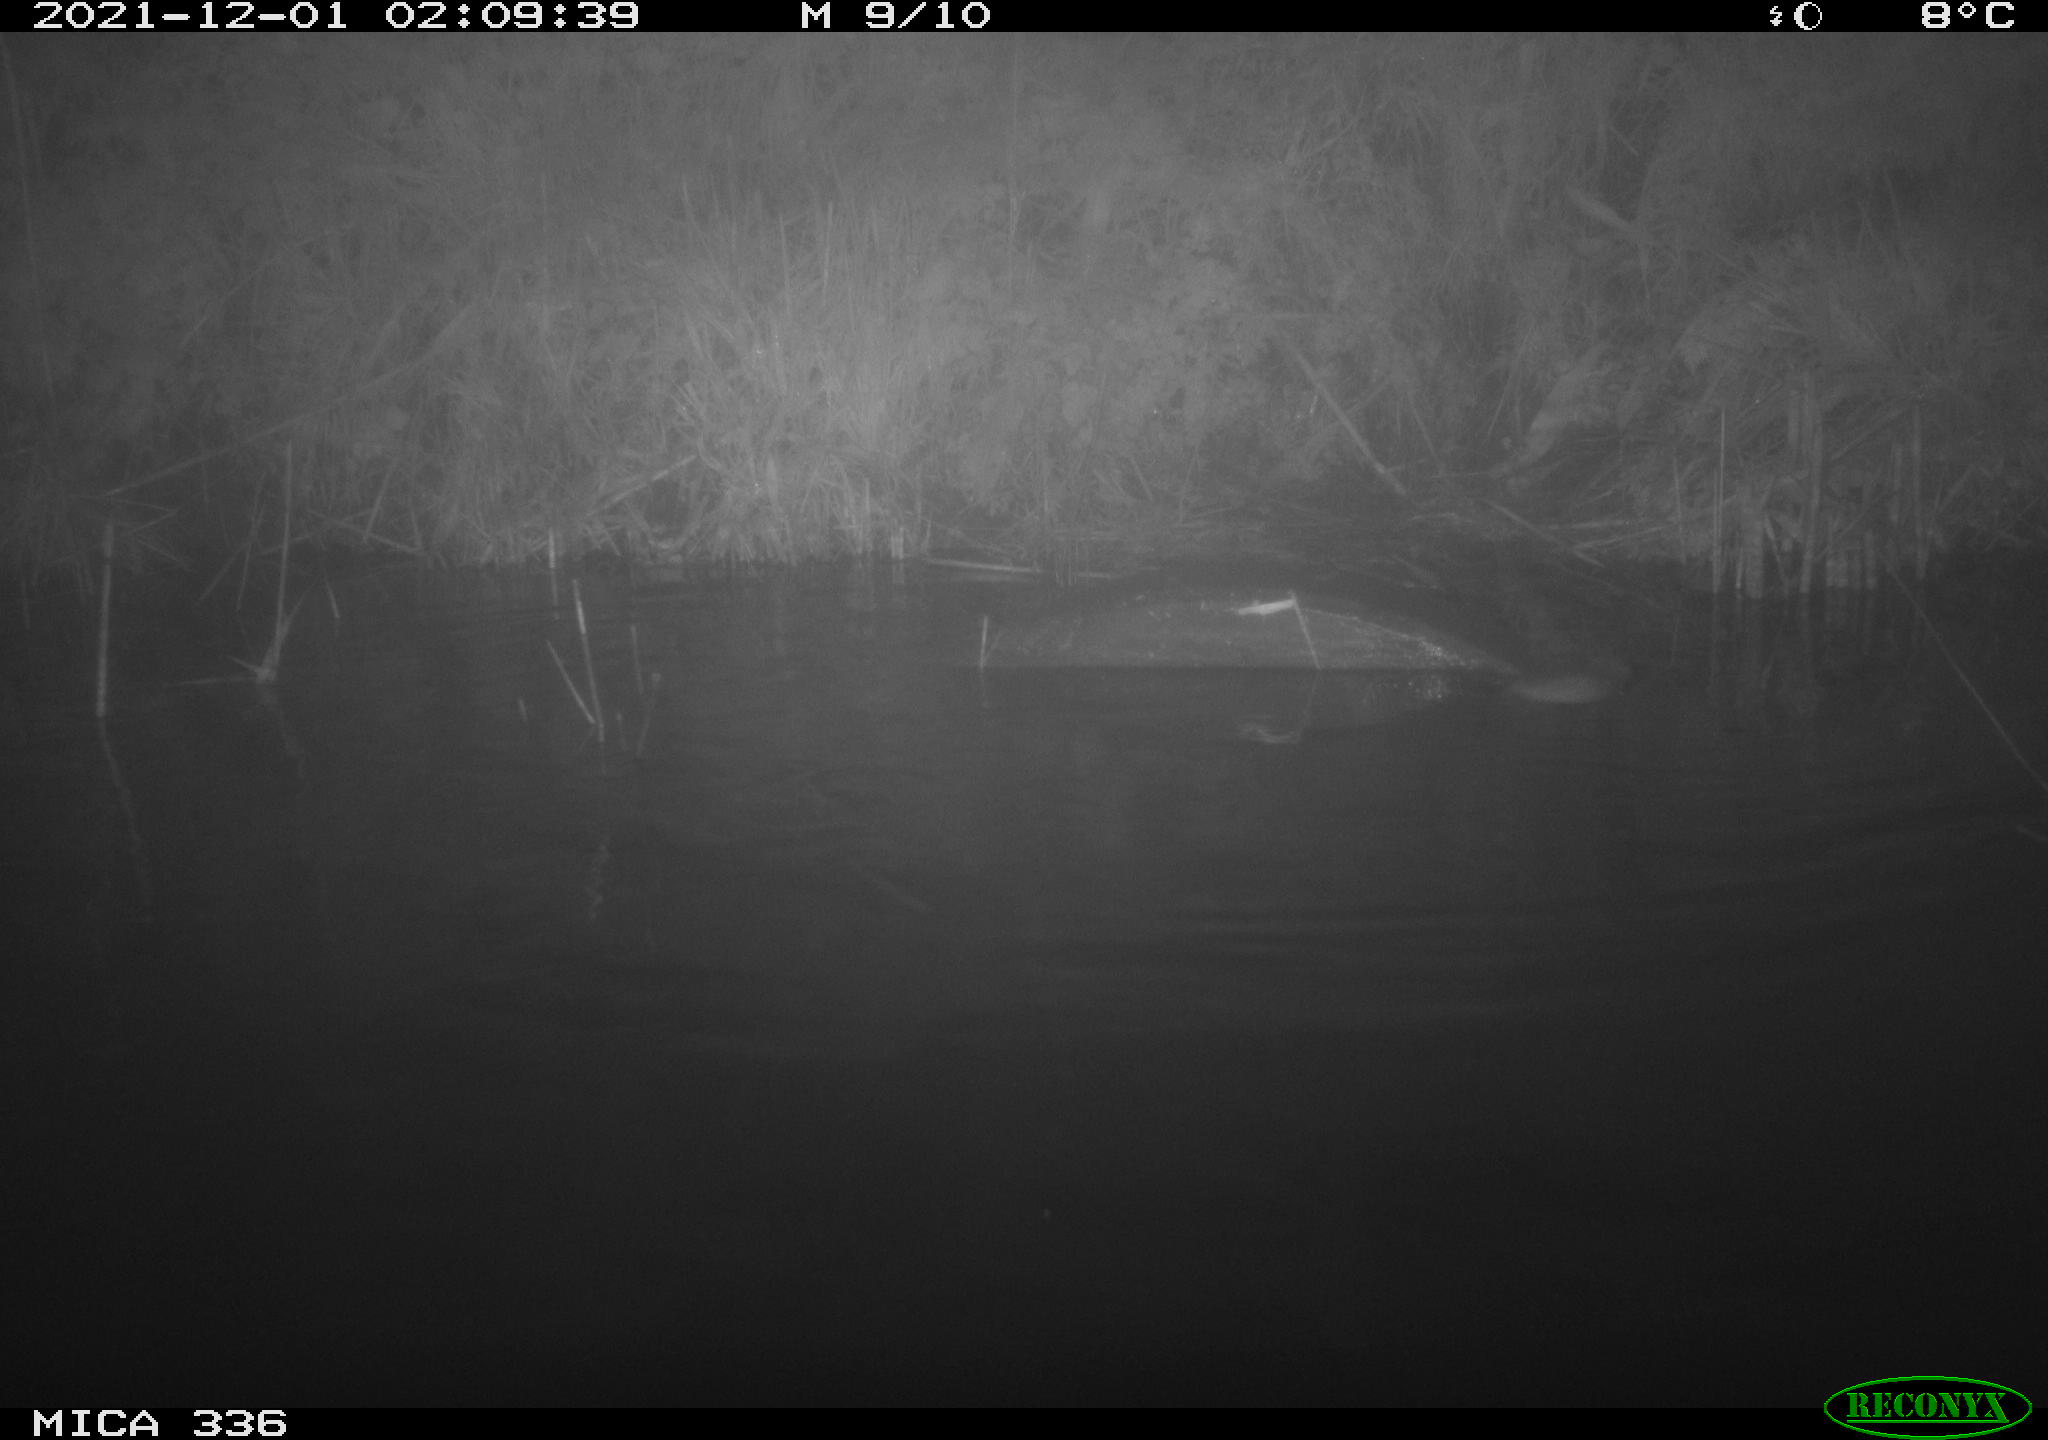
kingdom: Animalia
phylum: Chordata
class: Mammalia
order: Rodentia
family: Muridae
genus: Rattus
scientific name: Rattus norvegicus
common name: Brown rat
